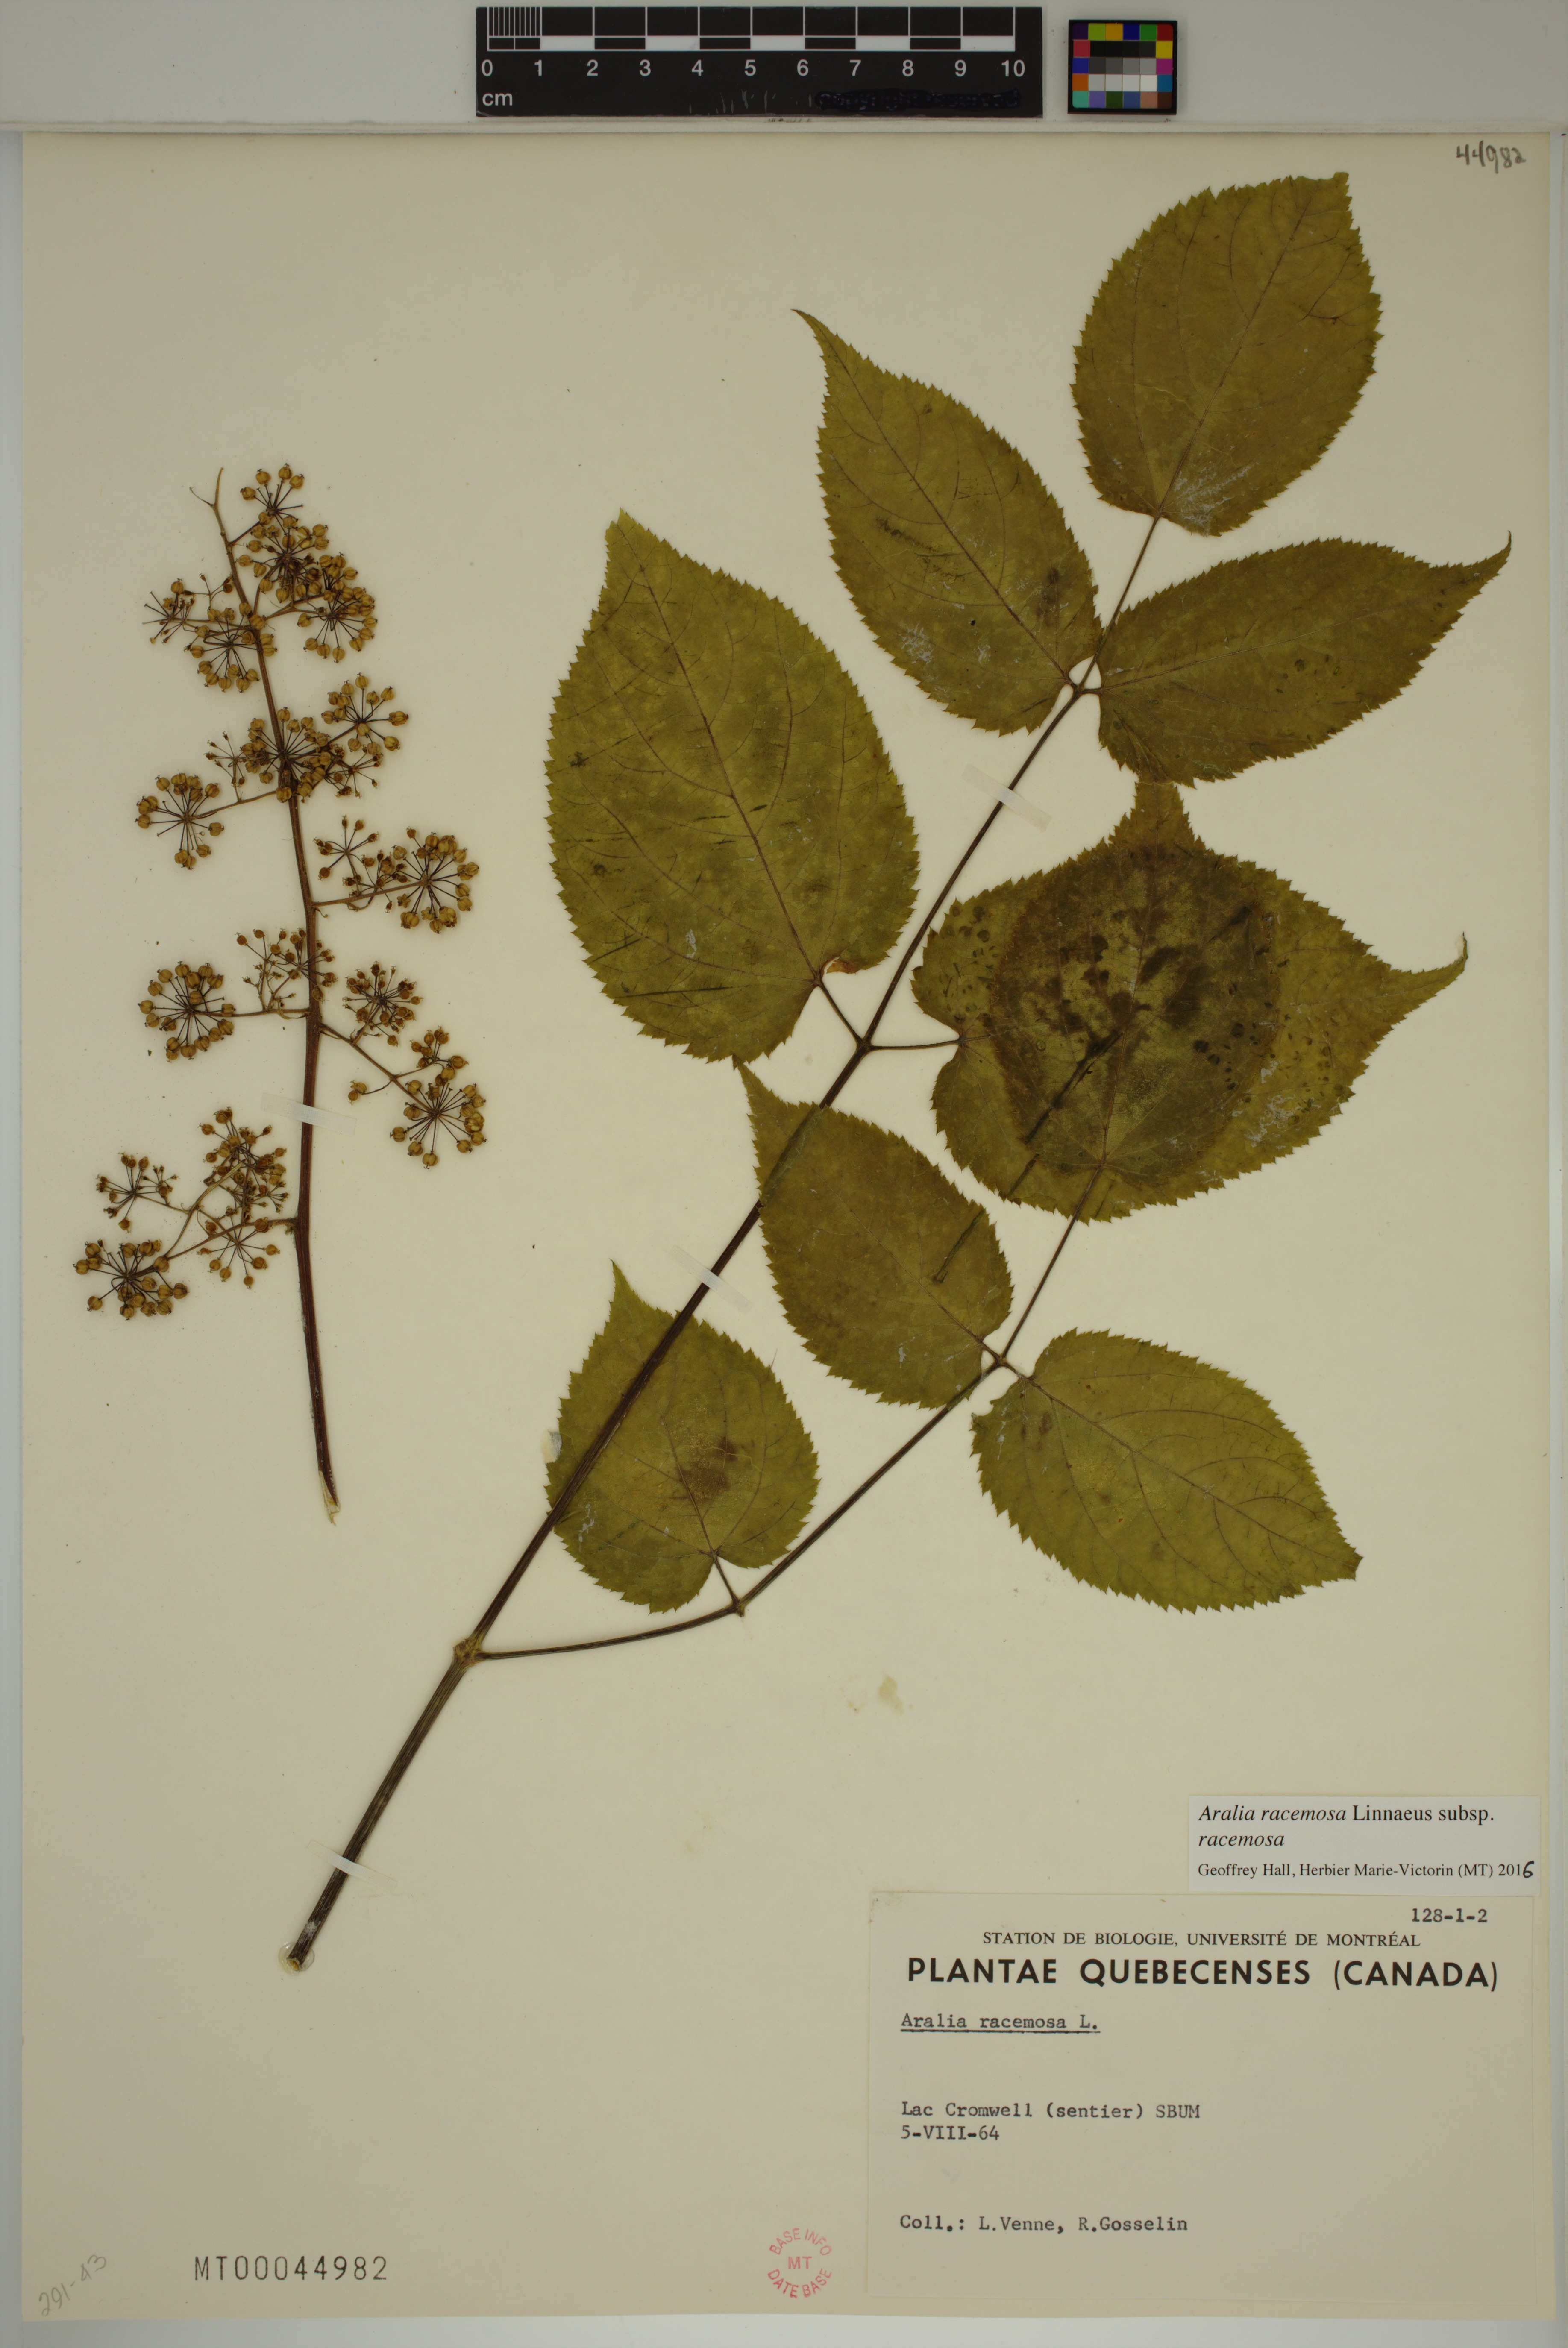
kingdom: Plantae
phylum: Tracheophyta
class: Magnoliopsida
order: Apiales
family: Araliaceae
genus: Aralia
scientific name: Aralia racemosa
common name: American-spikenard
